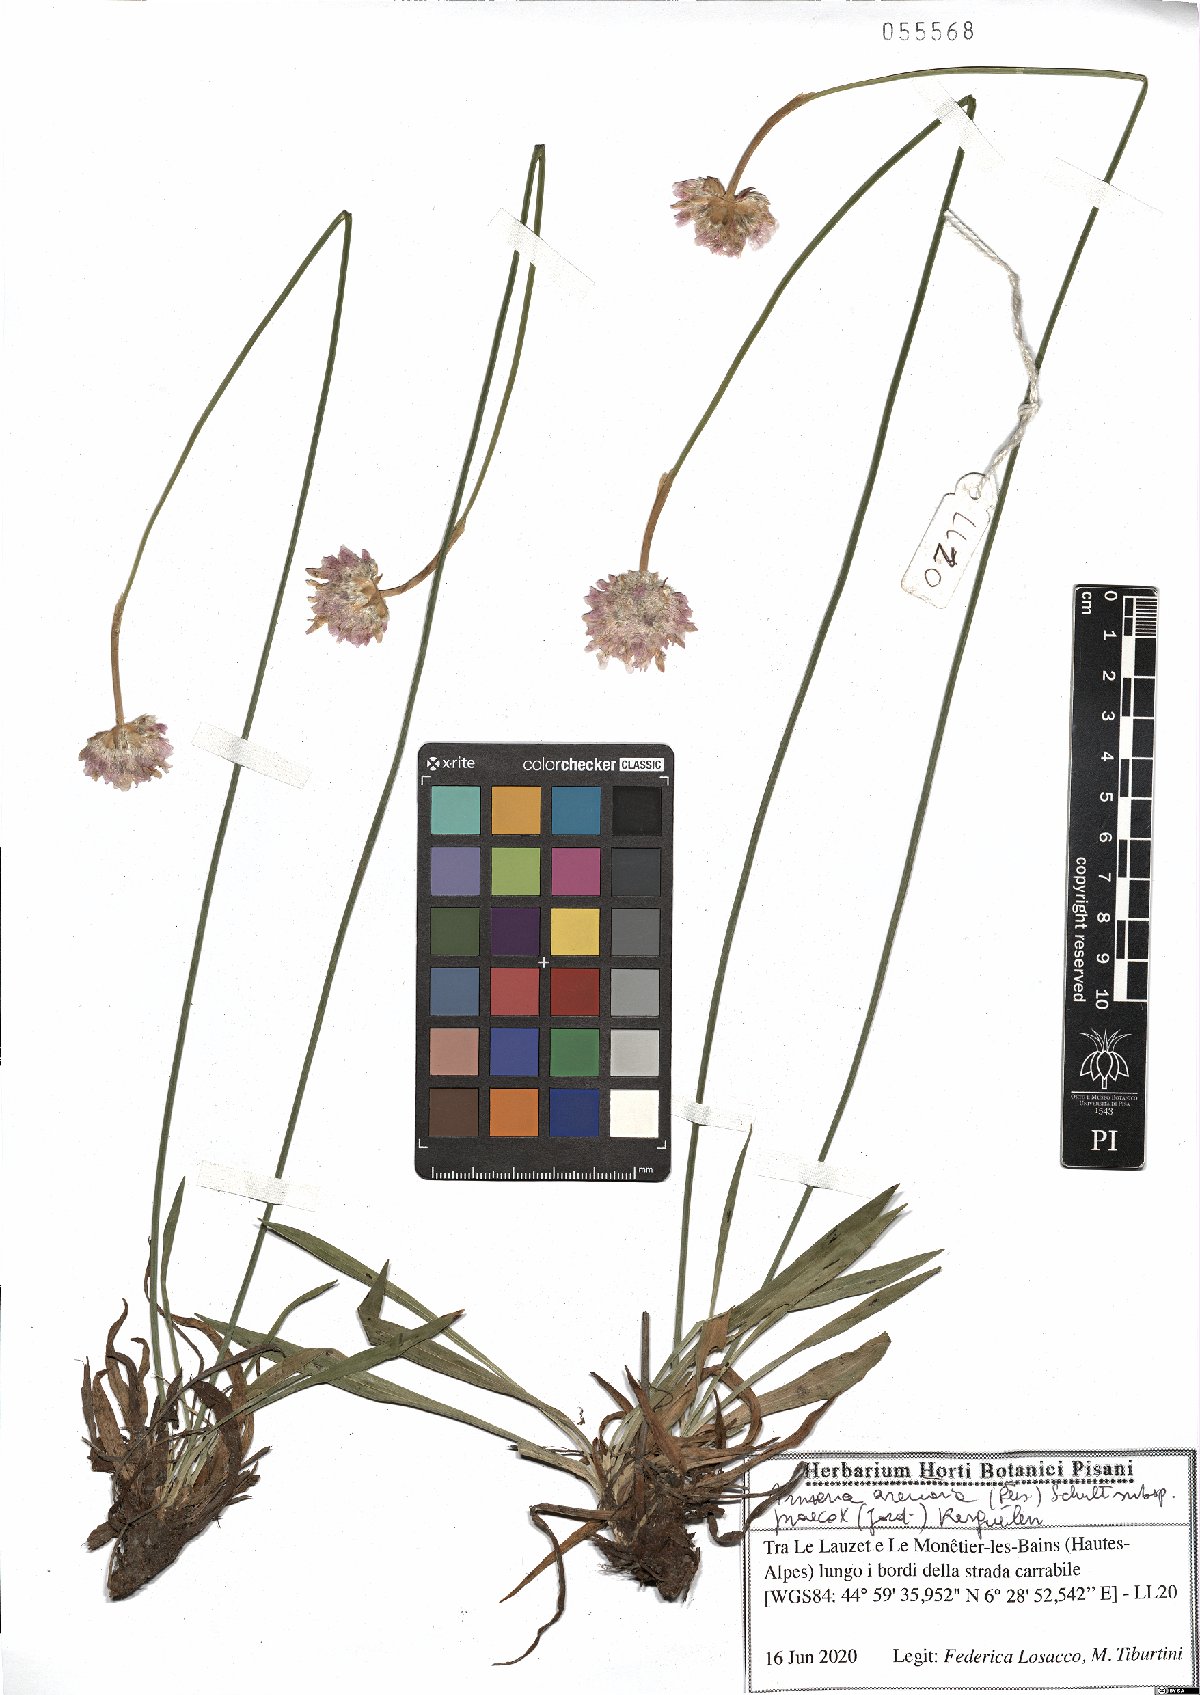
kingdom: Plantae
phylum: Tracheophyta
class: Magnoliopsida
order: Caryophyllales
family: Plumbaginaceae
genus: Armeria
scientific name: Armeria arenaria
